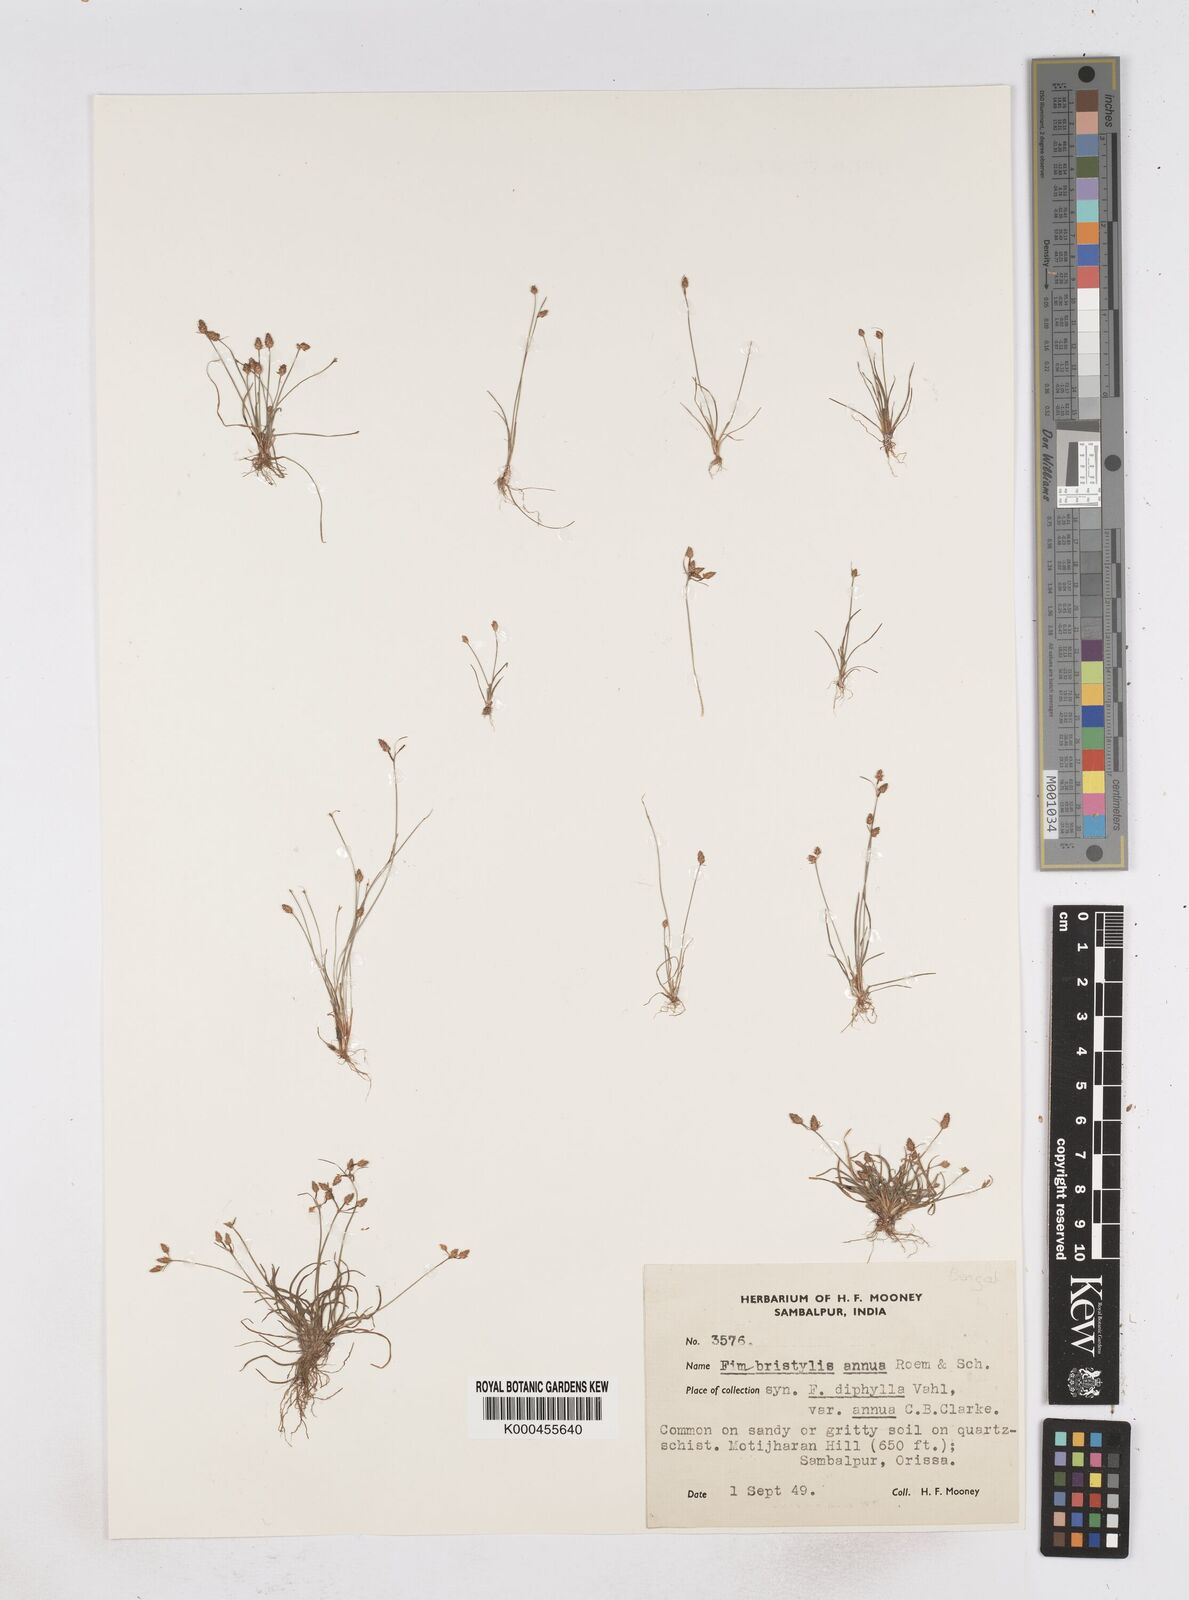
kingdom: Plantae
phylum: Tracheophyta
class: Liliopsida
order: Poales
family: Cyperaceae
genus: Fimbristylis
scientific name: Fimbristylis dichotoma
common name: Forked fimbry
